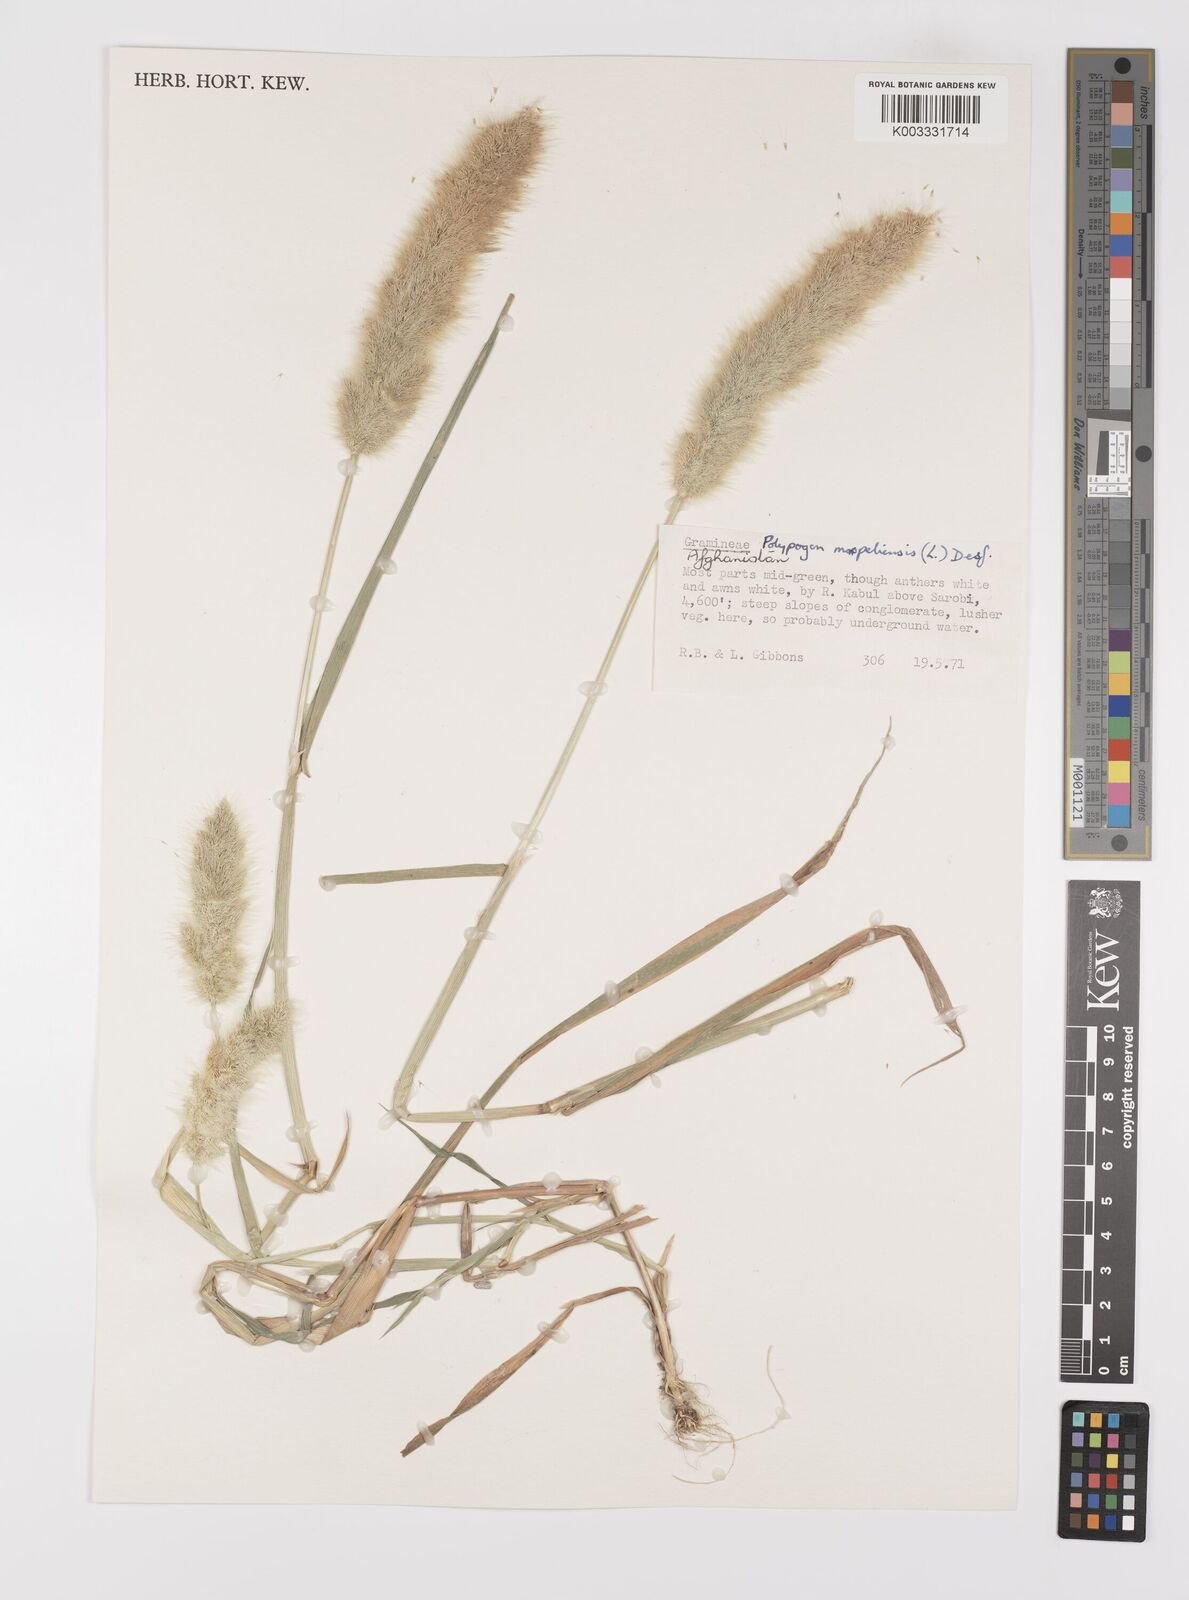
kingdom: Plantae
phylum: Tracheophyta
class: Liliopsida
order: Poales
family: Poaceae
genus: Polypogon
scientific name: Polypogon monspeliensis
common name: Annual rabbitsfoot grass
